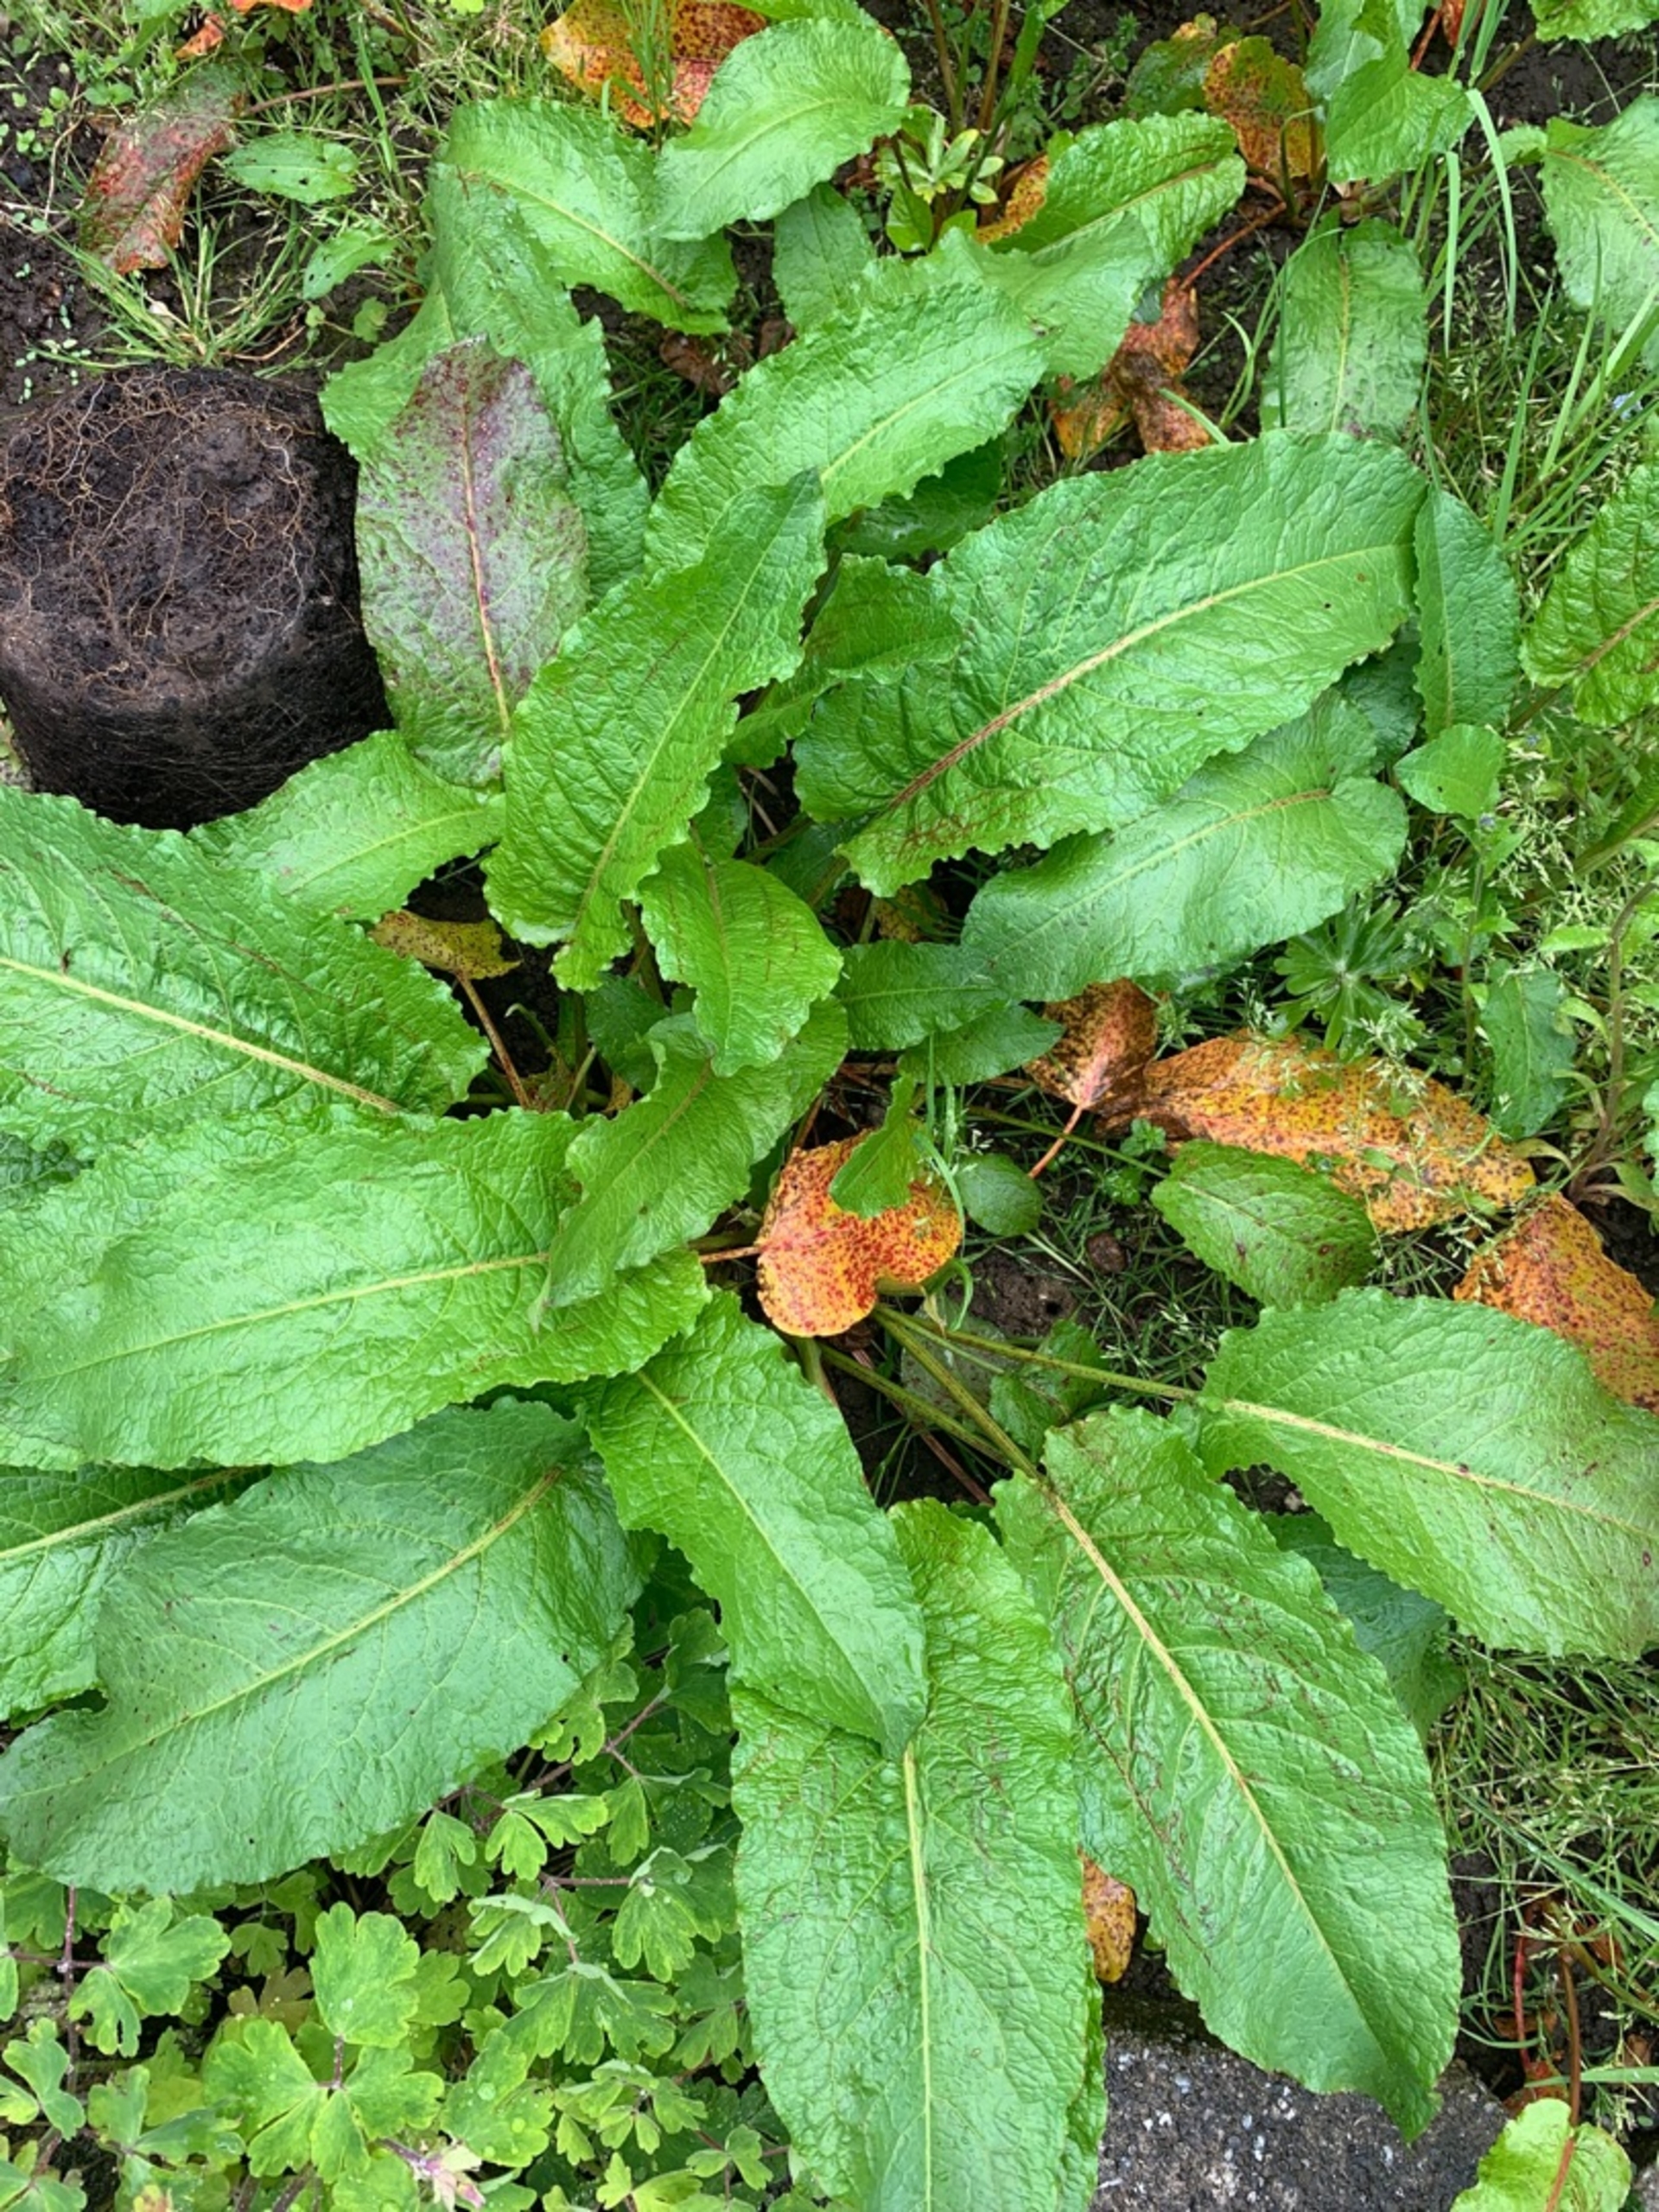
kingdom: Plantae
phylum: Tracheophyta
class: Magnoliopsida
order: Caryophyllales
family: Polygonaceae
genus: Rumex
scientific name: Rumex obtusifolius
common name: Butbladet skræppe
